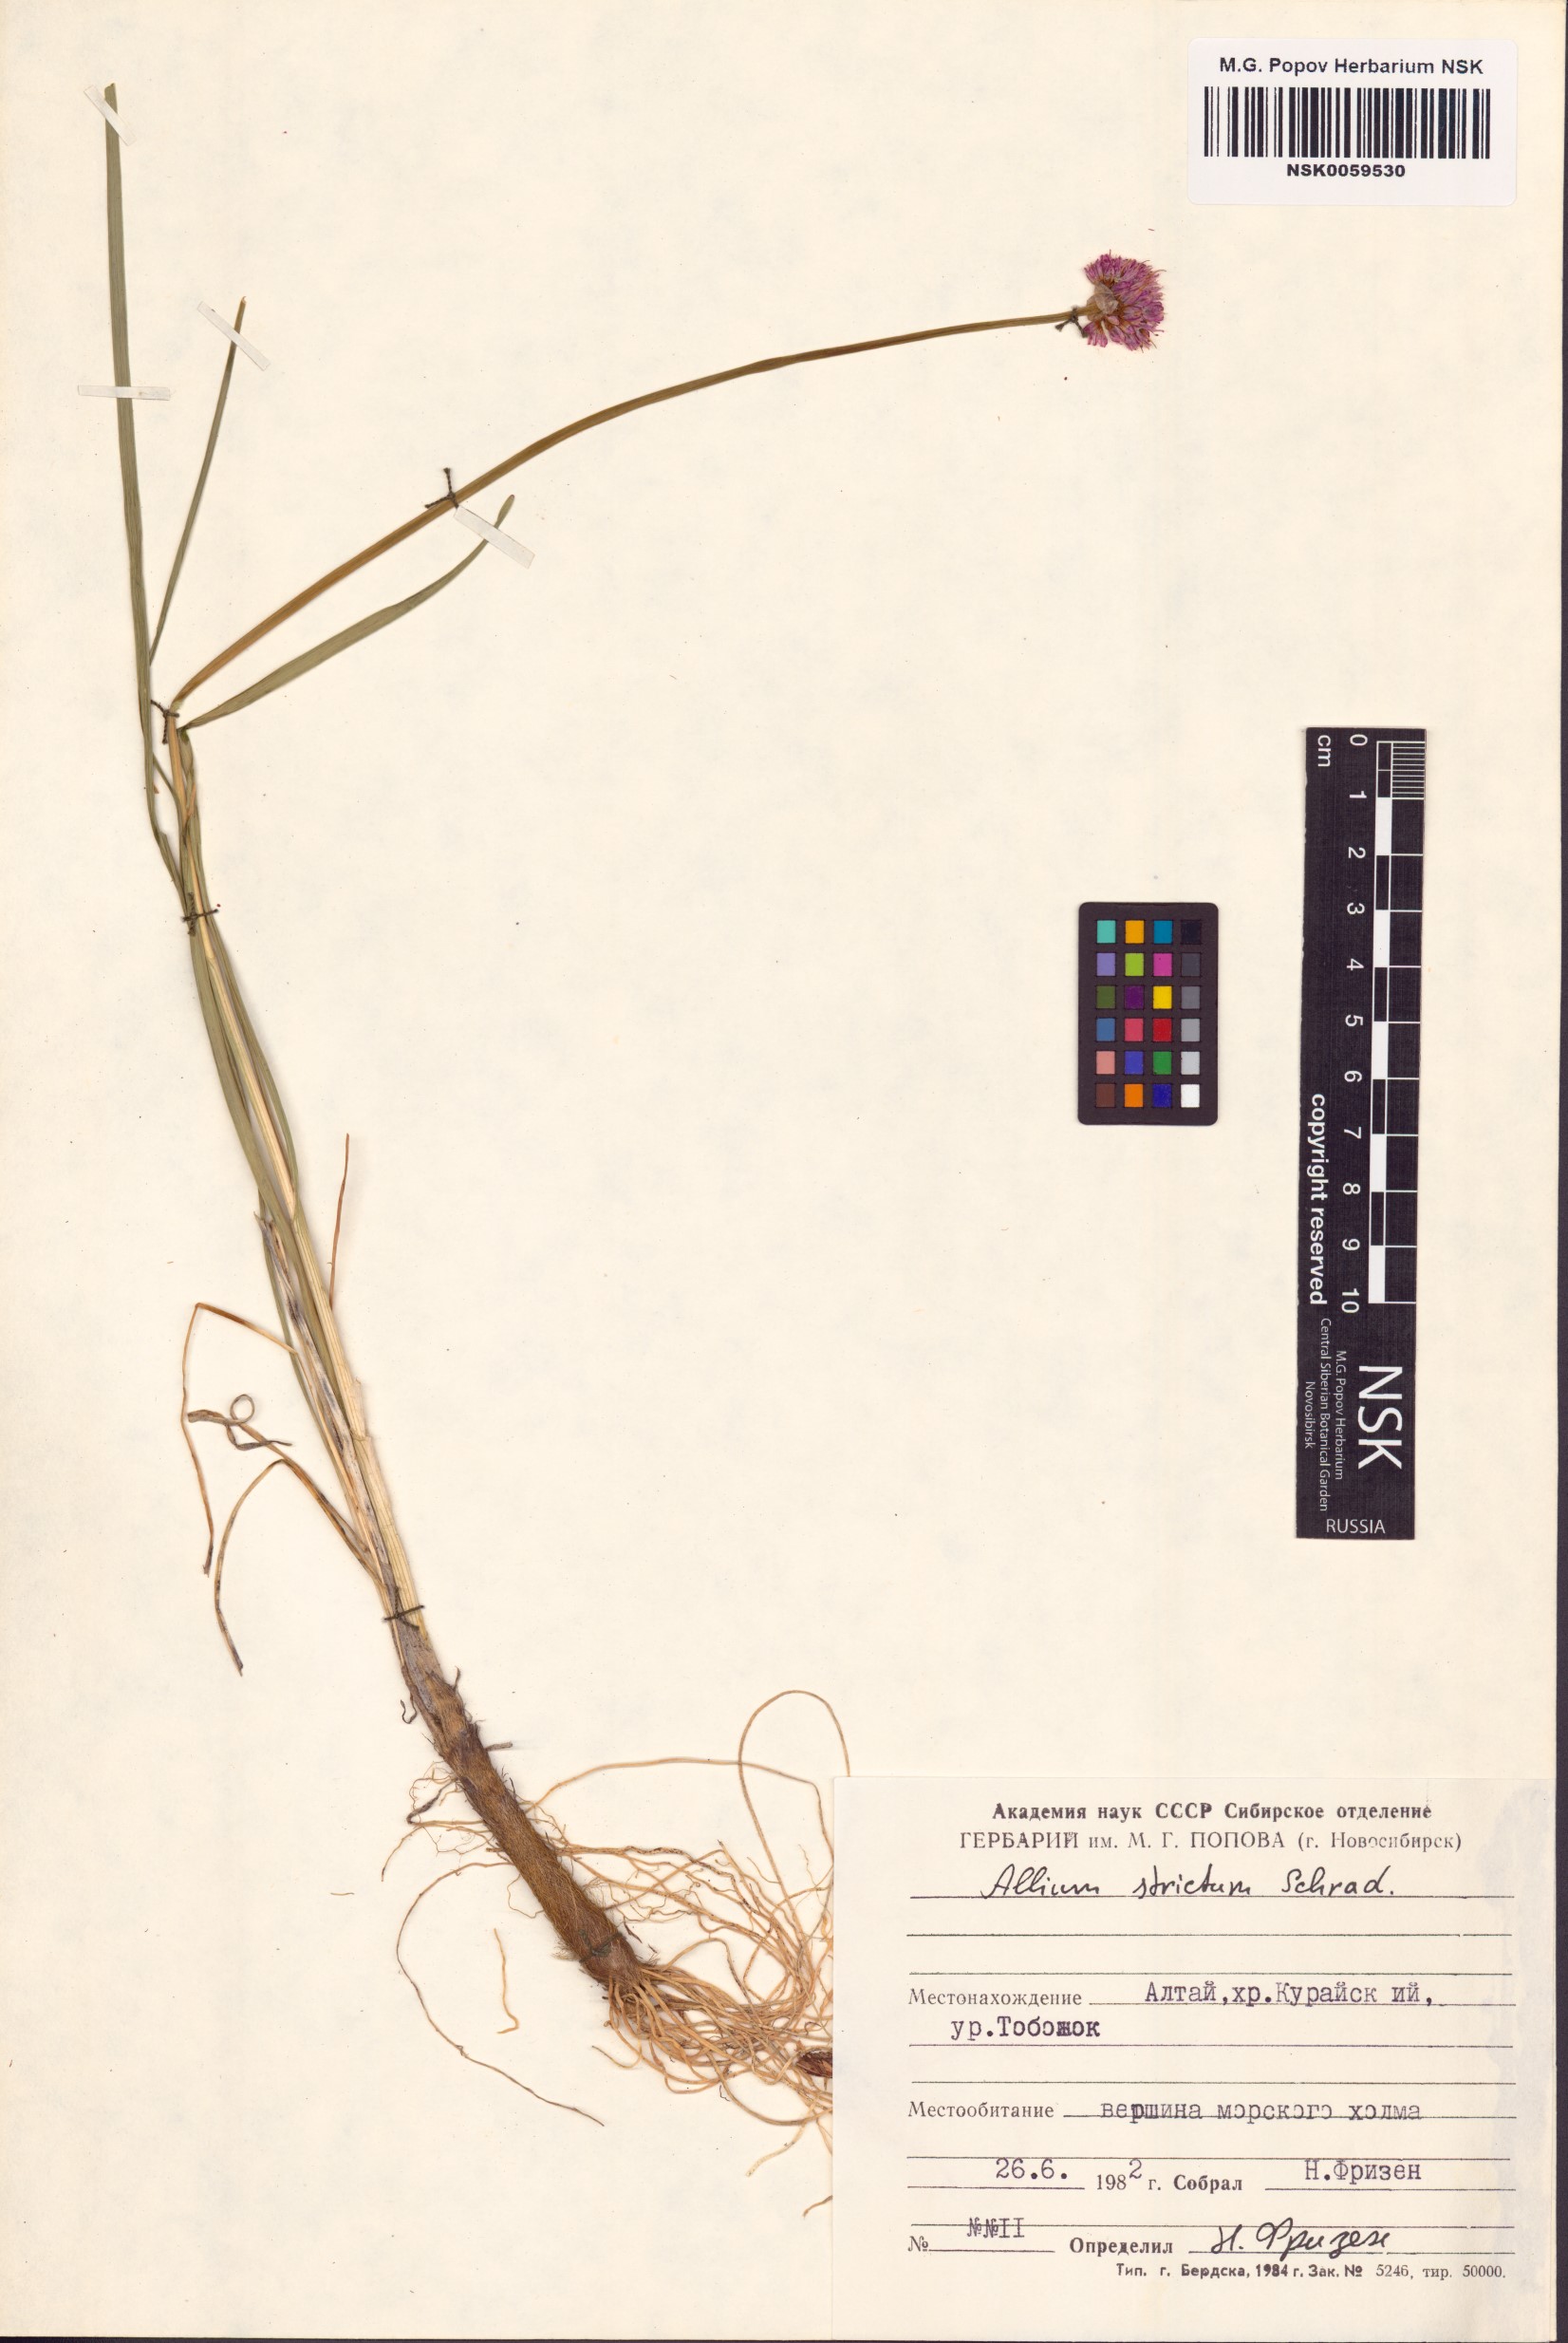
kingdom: Plantae
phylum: Tracheophyta
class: Liliopsida
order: Asparagales
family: Amaryllidaceae
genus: Allium
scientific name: Allium strictum
